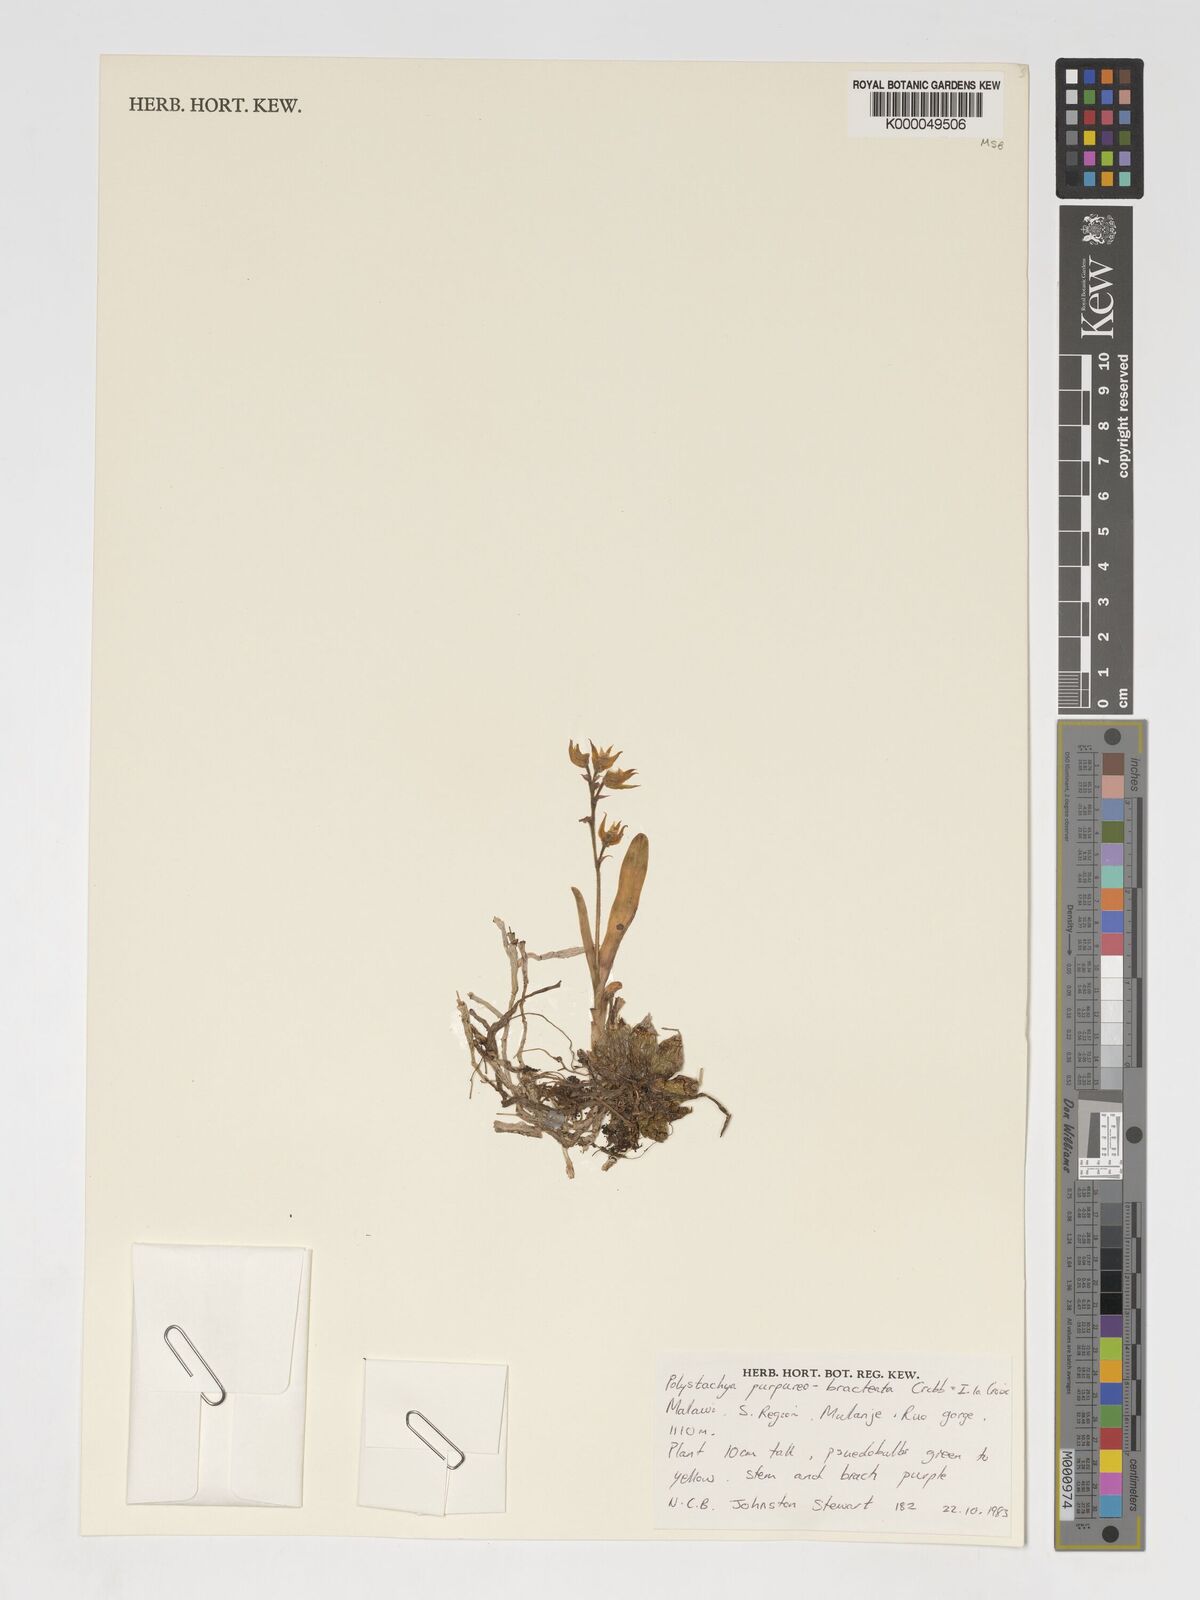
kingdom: Plantae
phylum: Tracheophyta
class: Liliopsida
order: Asparagales
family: Orchidaceae
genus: Polystachya
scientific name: Polystachya purpureobracteata
